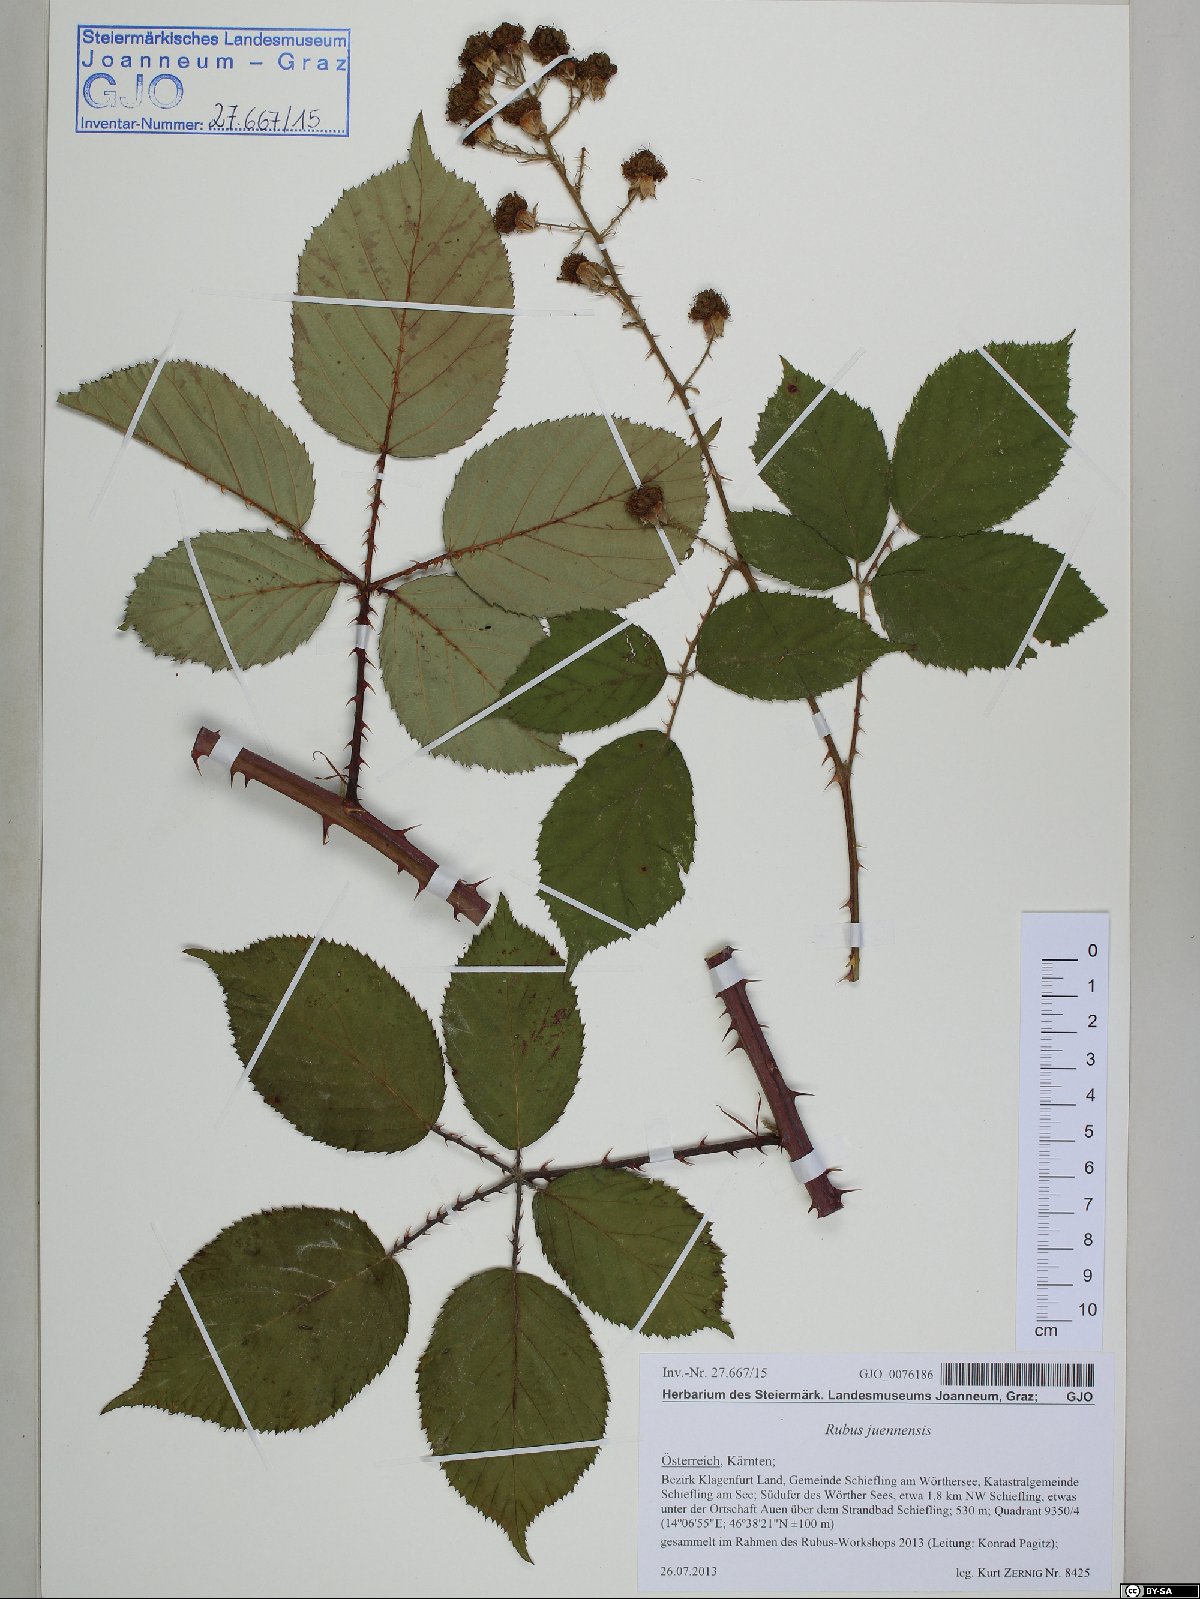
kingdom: Plantae
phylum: Tracheophyta
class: Magnoliopsida
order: Rosales
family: Rosaceae
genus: Rubus
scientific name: Rubus juennensis
